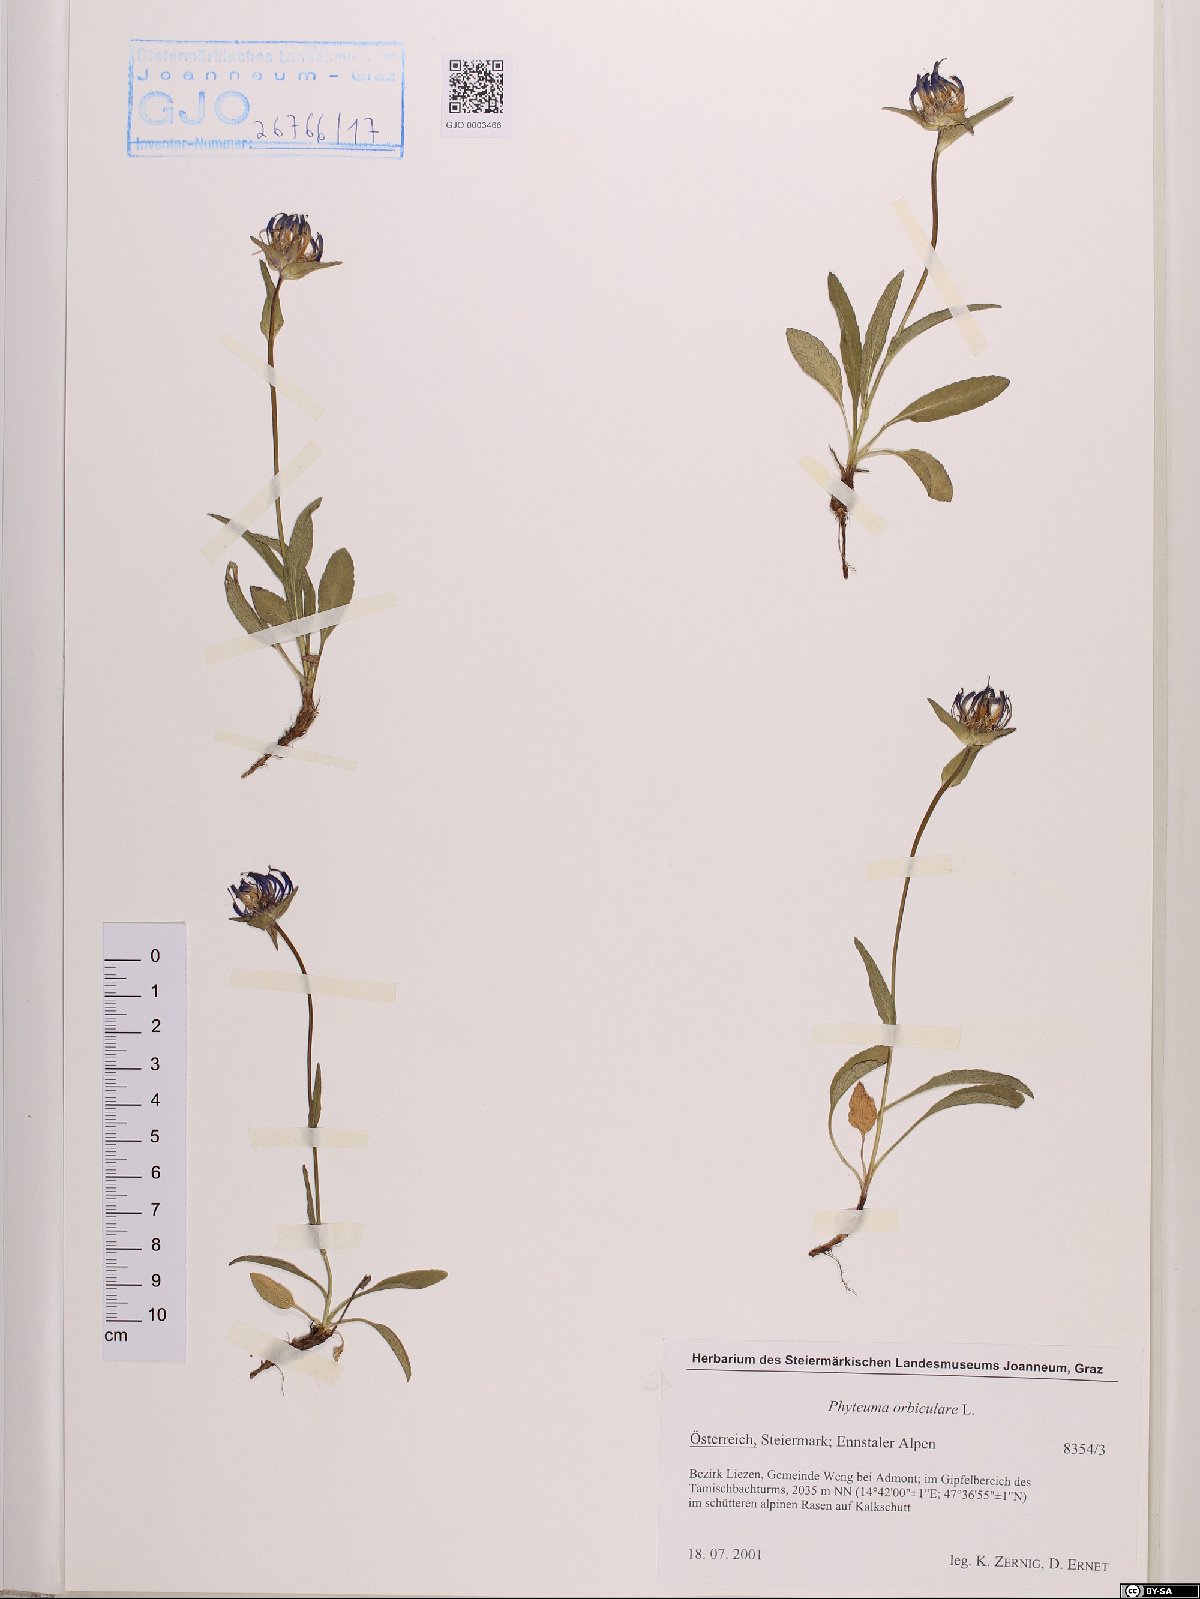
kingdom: Plantae
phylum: Tracheophyta
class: Magnoliopsida
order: Asterales
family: Campanulaceae
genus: Phyteuma
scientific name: Phyteuma orbiculare
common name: Round-headed rampion
